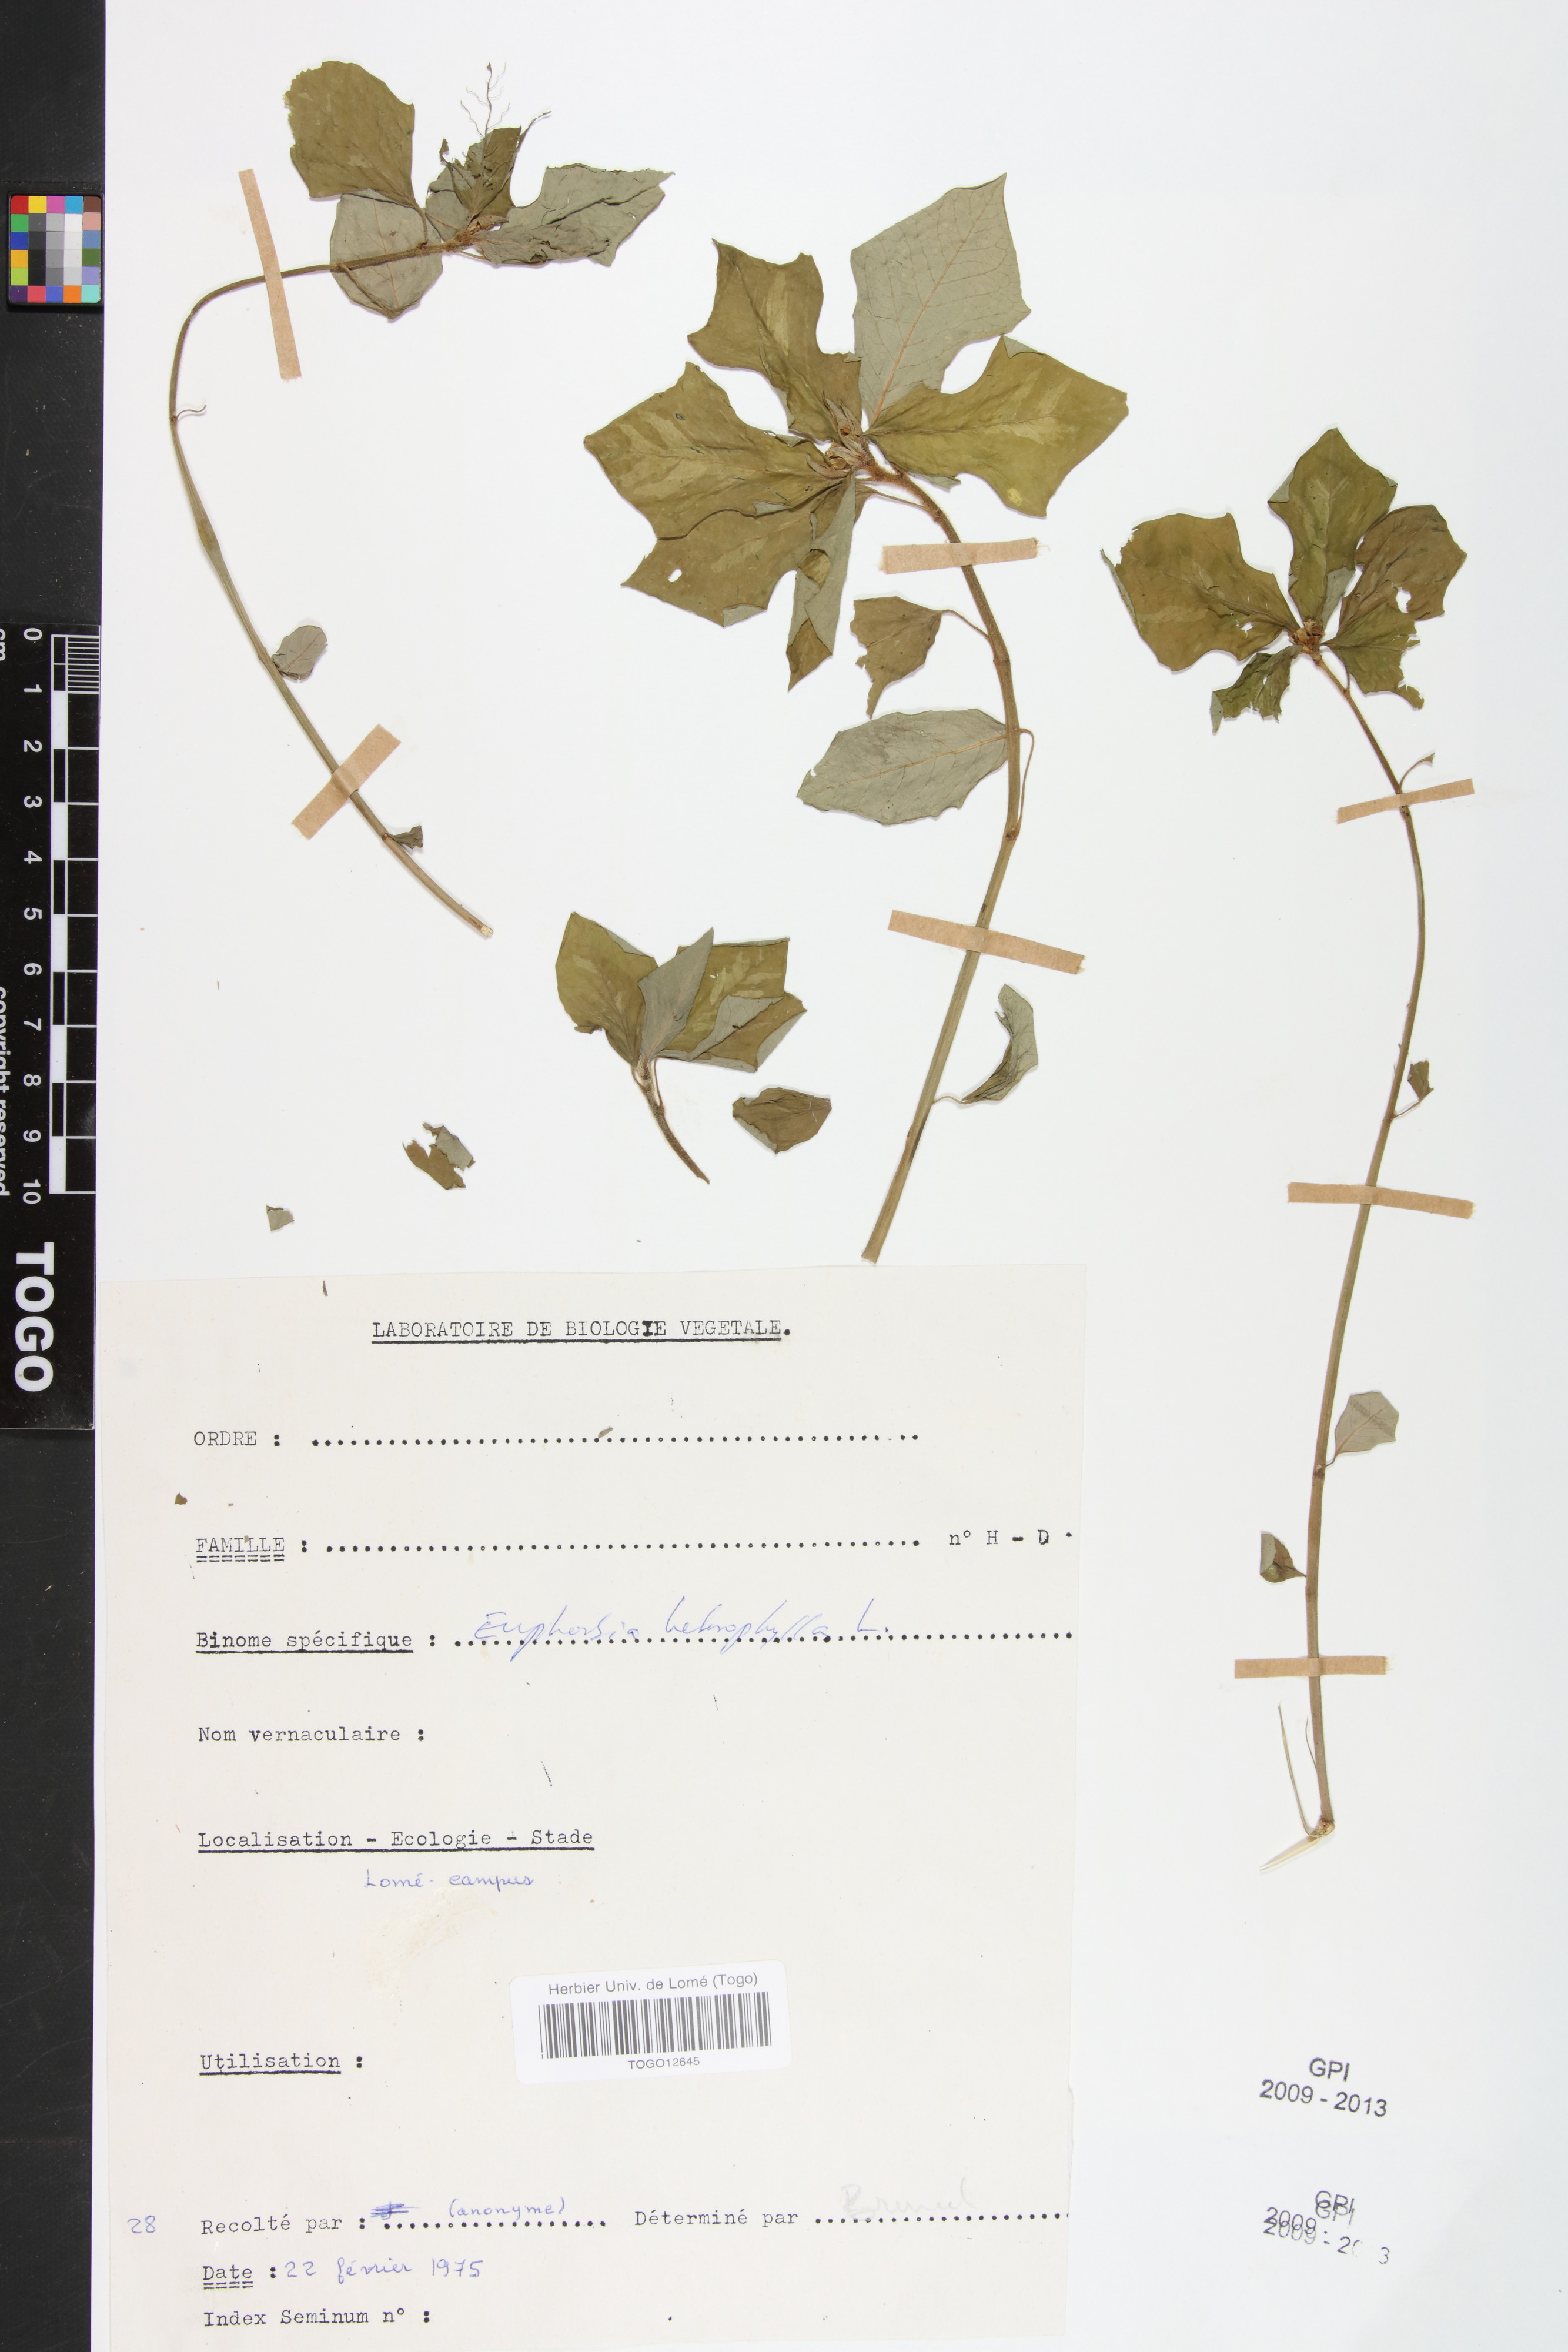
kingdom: Plantae
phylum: Tracheophyta
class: Magnoliopsida
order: Malpighiales
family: Euphorbiaceae
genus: Euphorbia
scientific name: Euphorbia heterophylla
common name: Mexican fireplant
